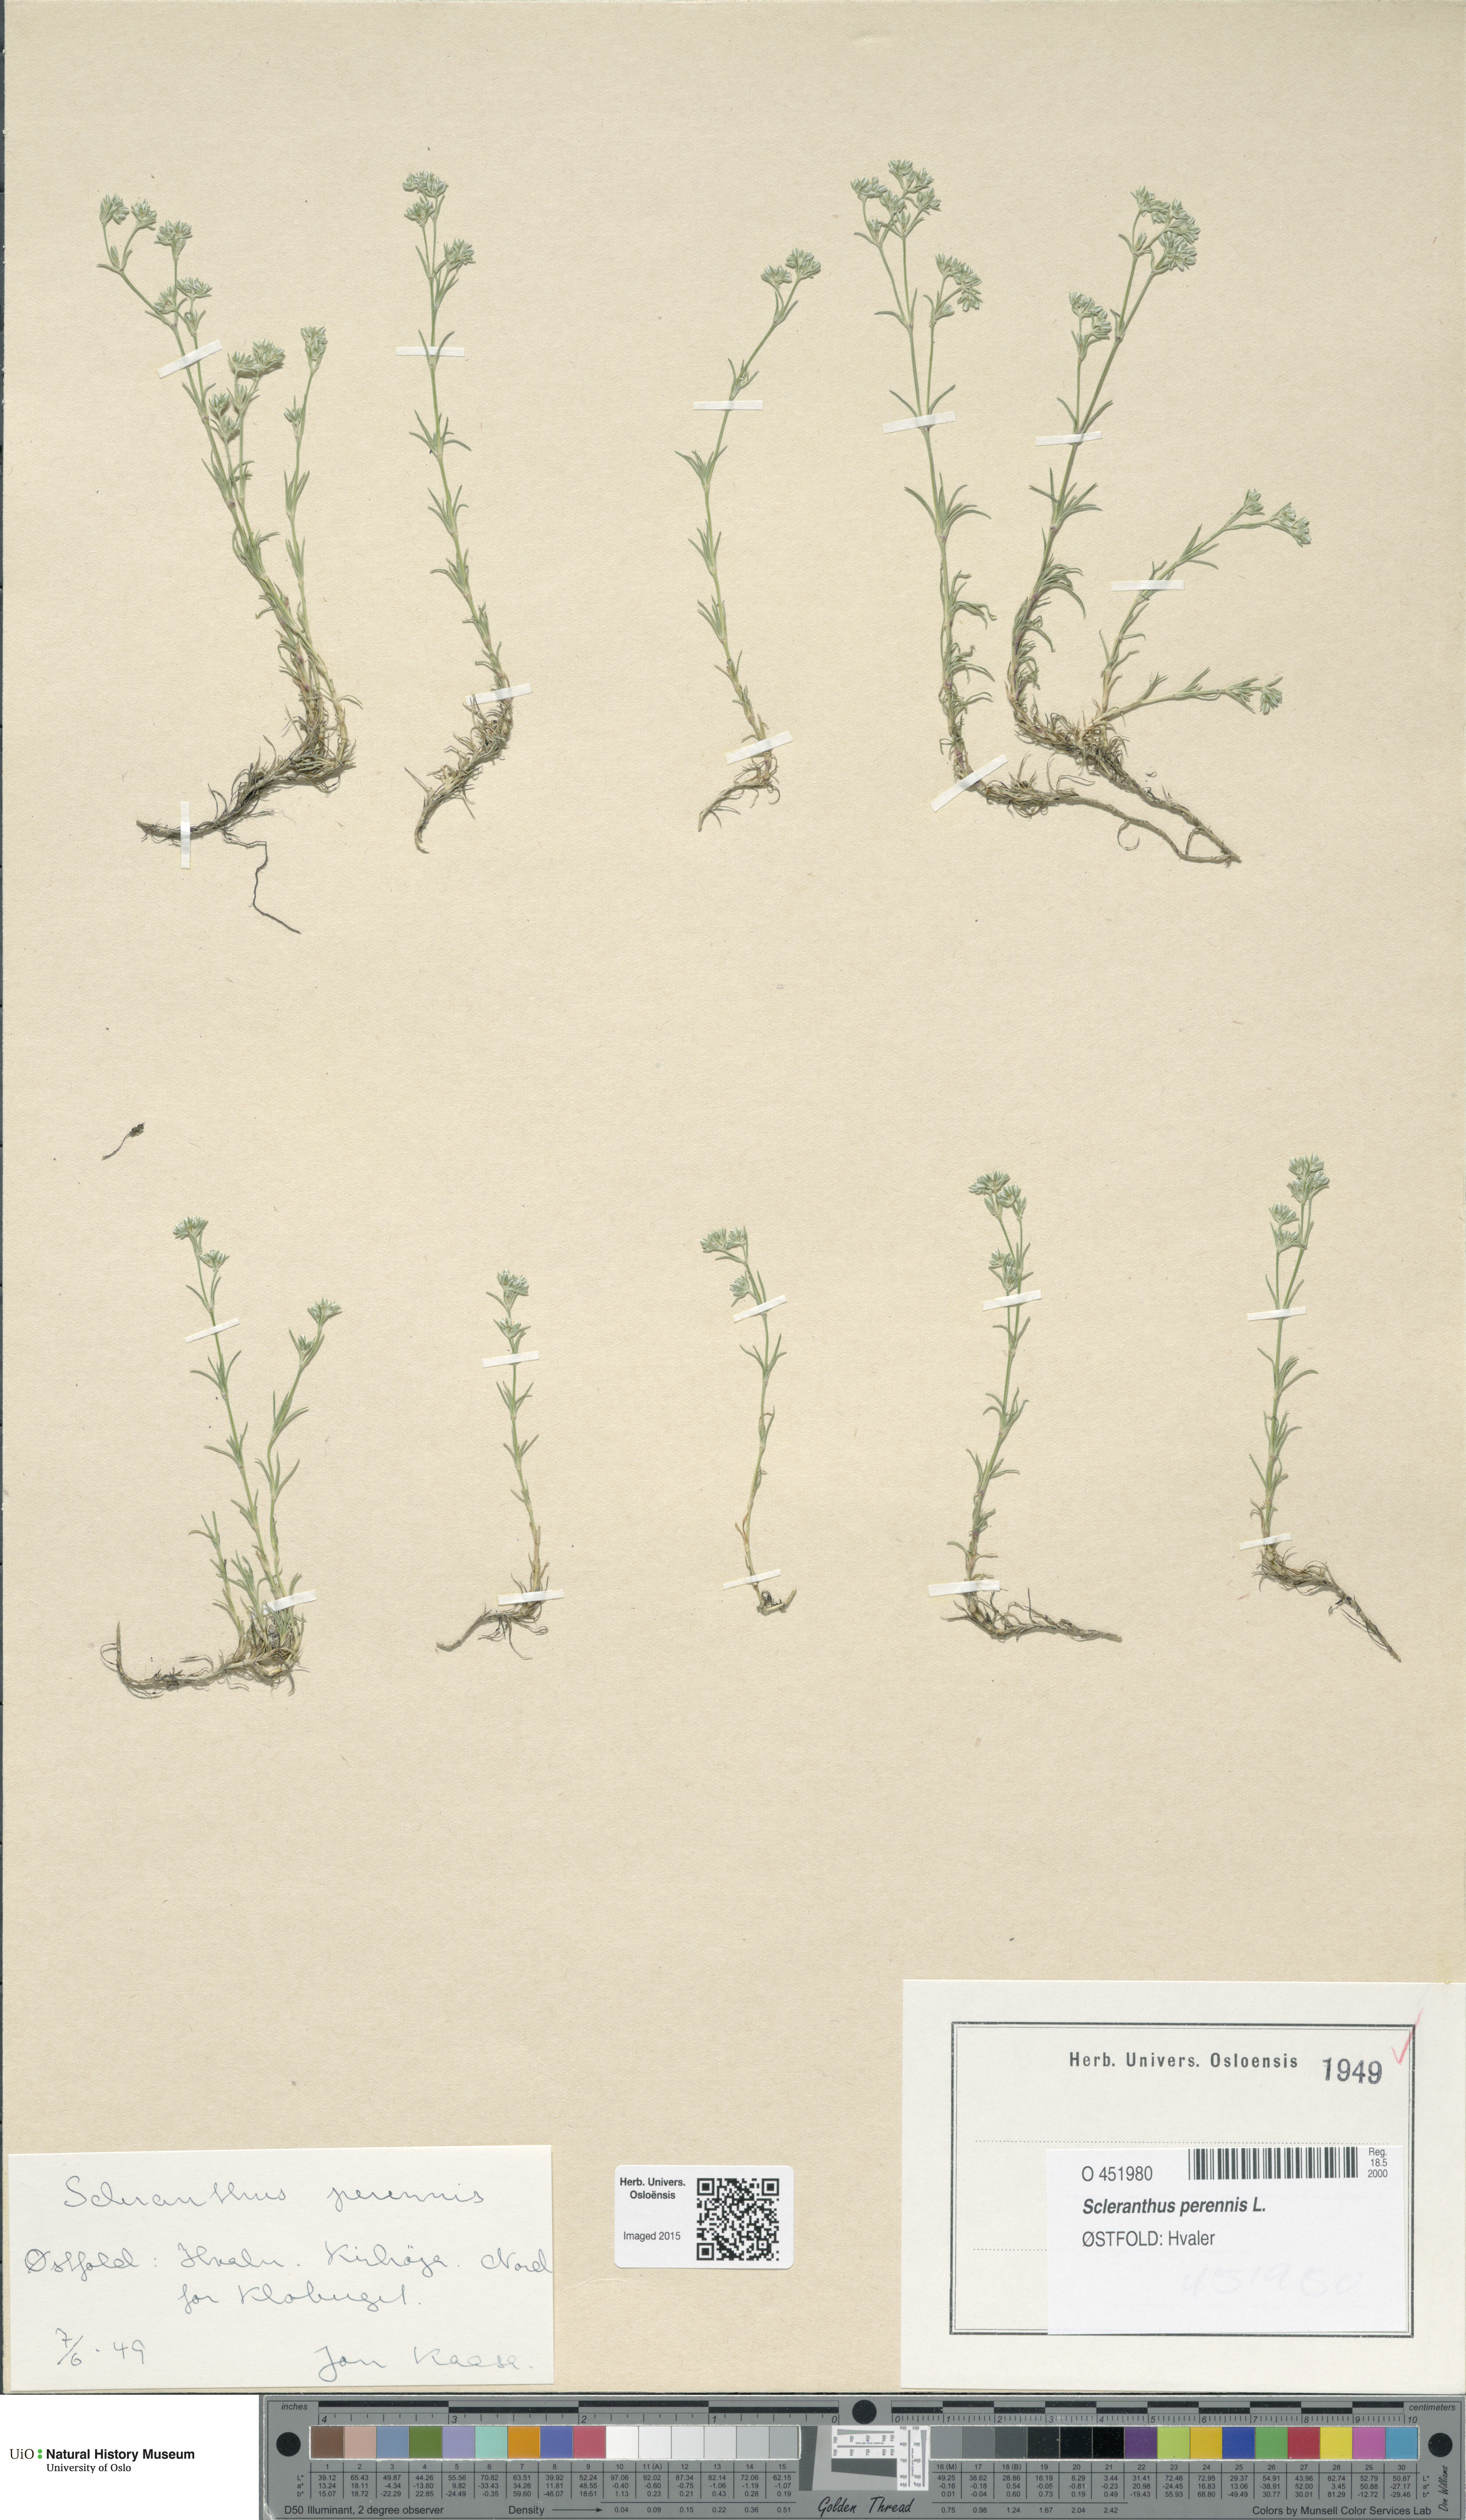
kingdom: Plantae
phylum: Tracheophyta
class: Magnoliopsida
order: Caryophyllales
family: Caryophyllaceae
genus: Scleranthus
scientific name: Scleranthus perennis
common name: Perennial knawel
